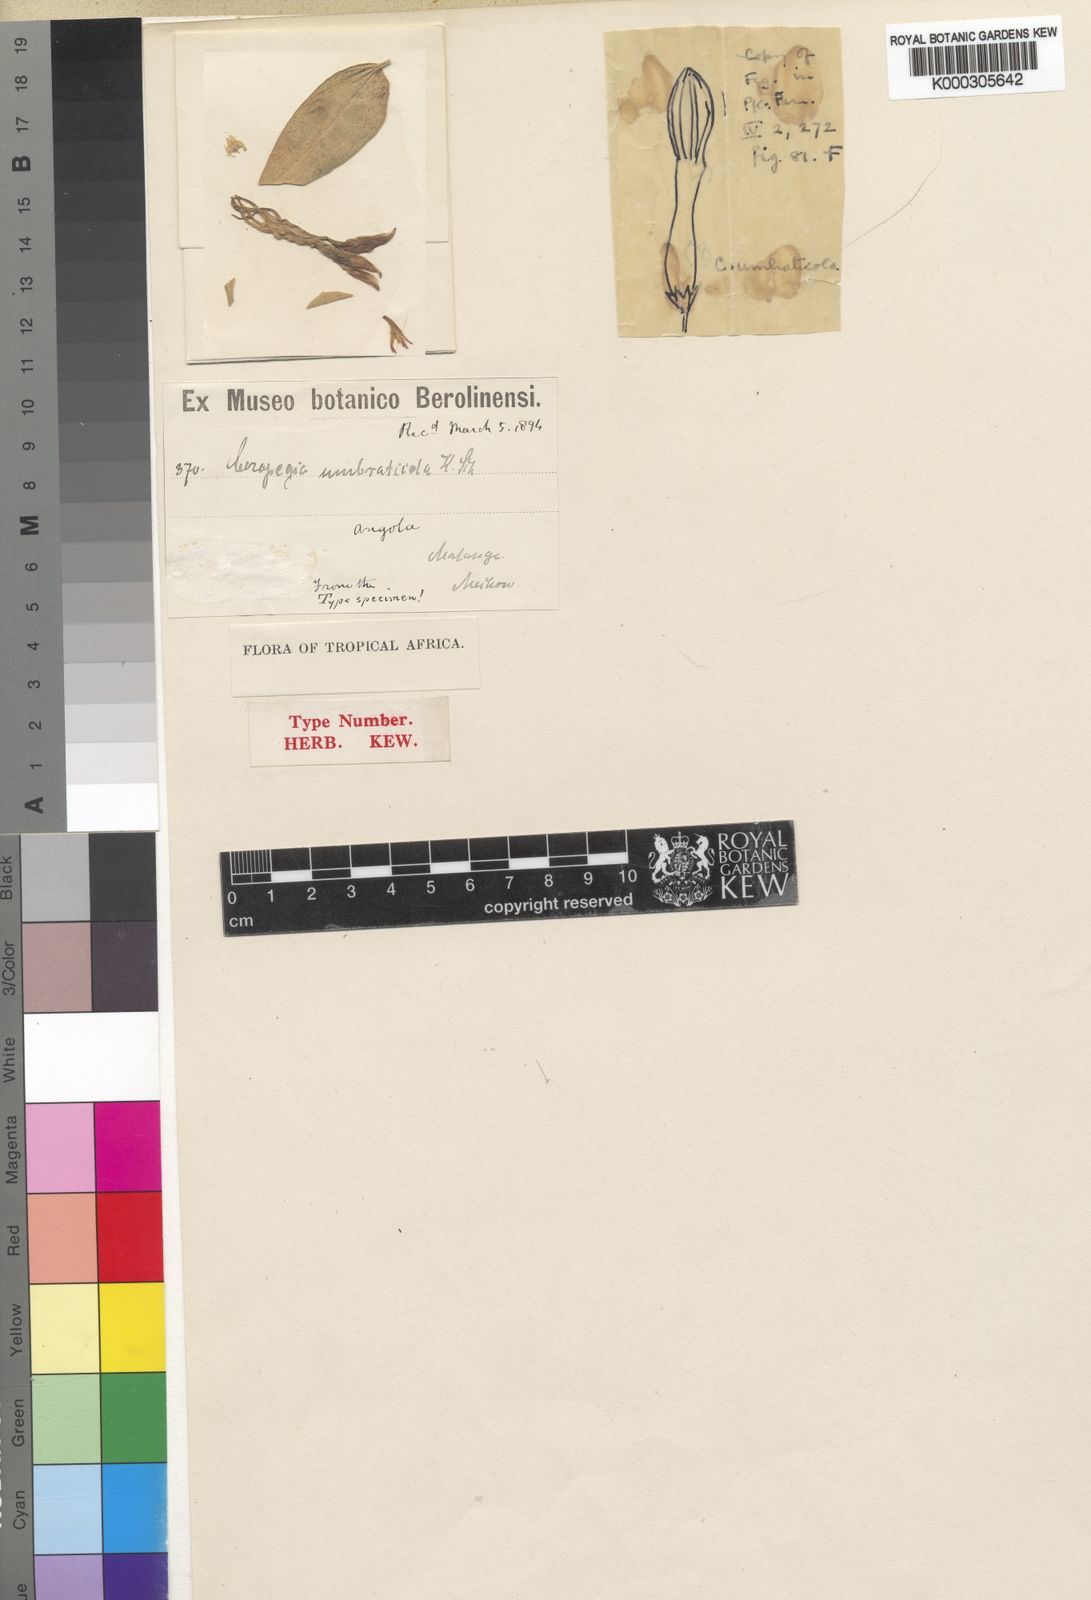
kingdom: Plantae
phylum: Tracheophyta
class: Magnoliopsida
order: Gentianales
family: Apocynaceae
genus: Ceropegia
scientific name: Ceropegia umbraticola
